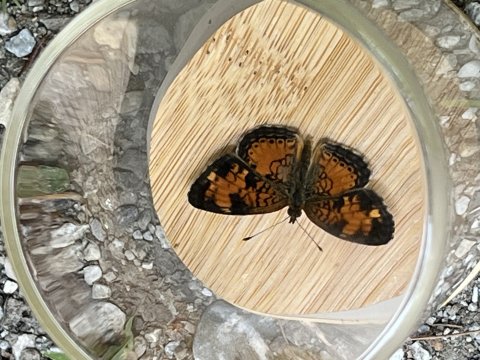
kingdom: Animalia
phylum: Arthropoda
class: Insecta
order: Lepidoptera
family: Nymphalidae
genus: Phyciodes
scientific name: Phyciodes tharos
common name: Pearl Crescent
